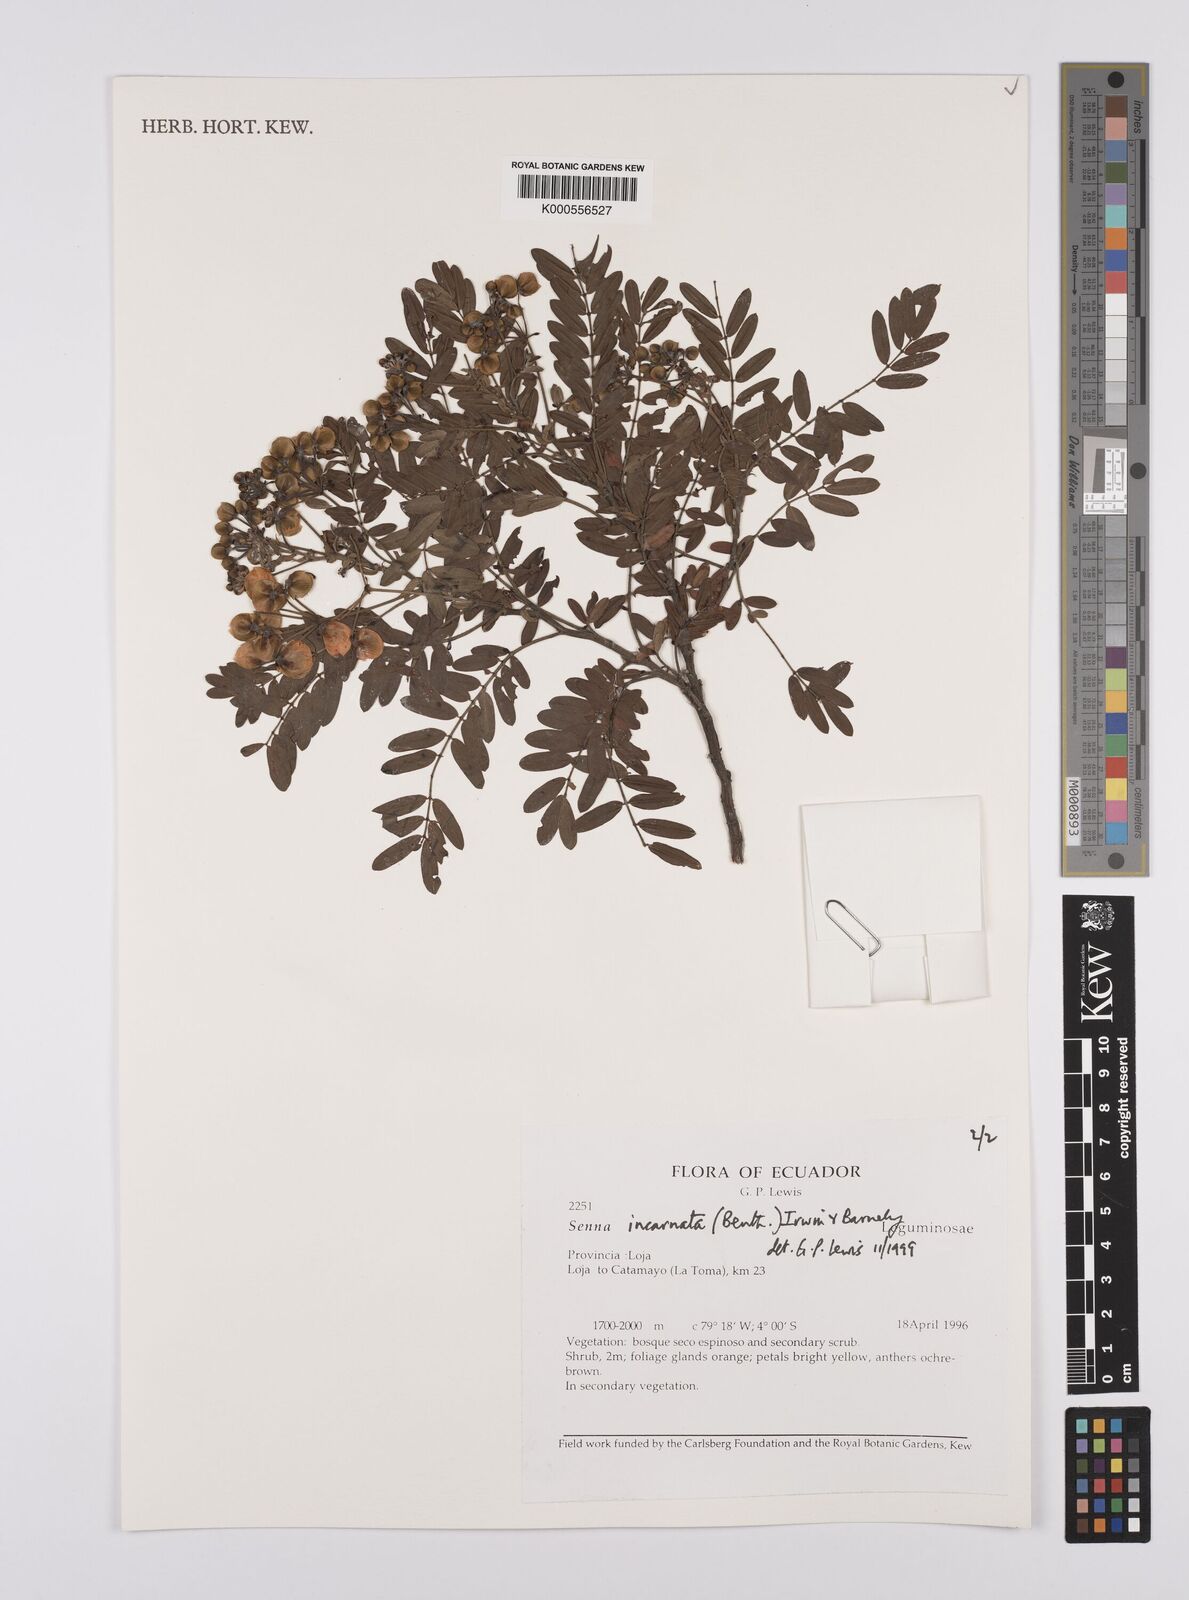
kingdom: Plantae
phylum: Tracheophyta
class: Magnoliopsida
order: Fabales
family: Fabaceae
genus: Senna
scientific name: Senna incarnata
